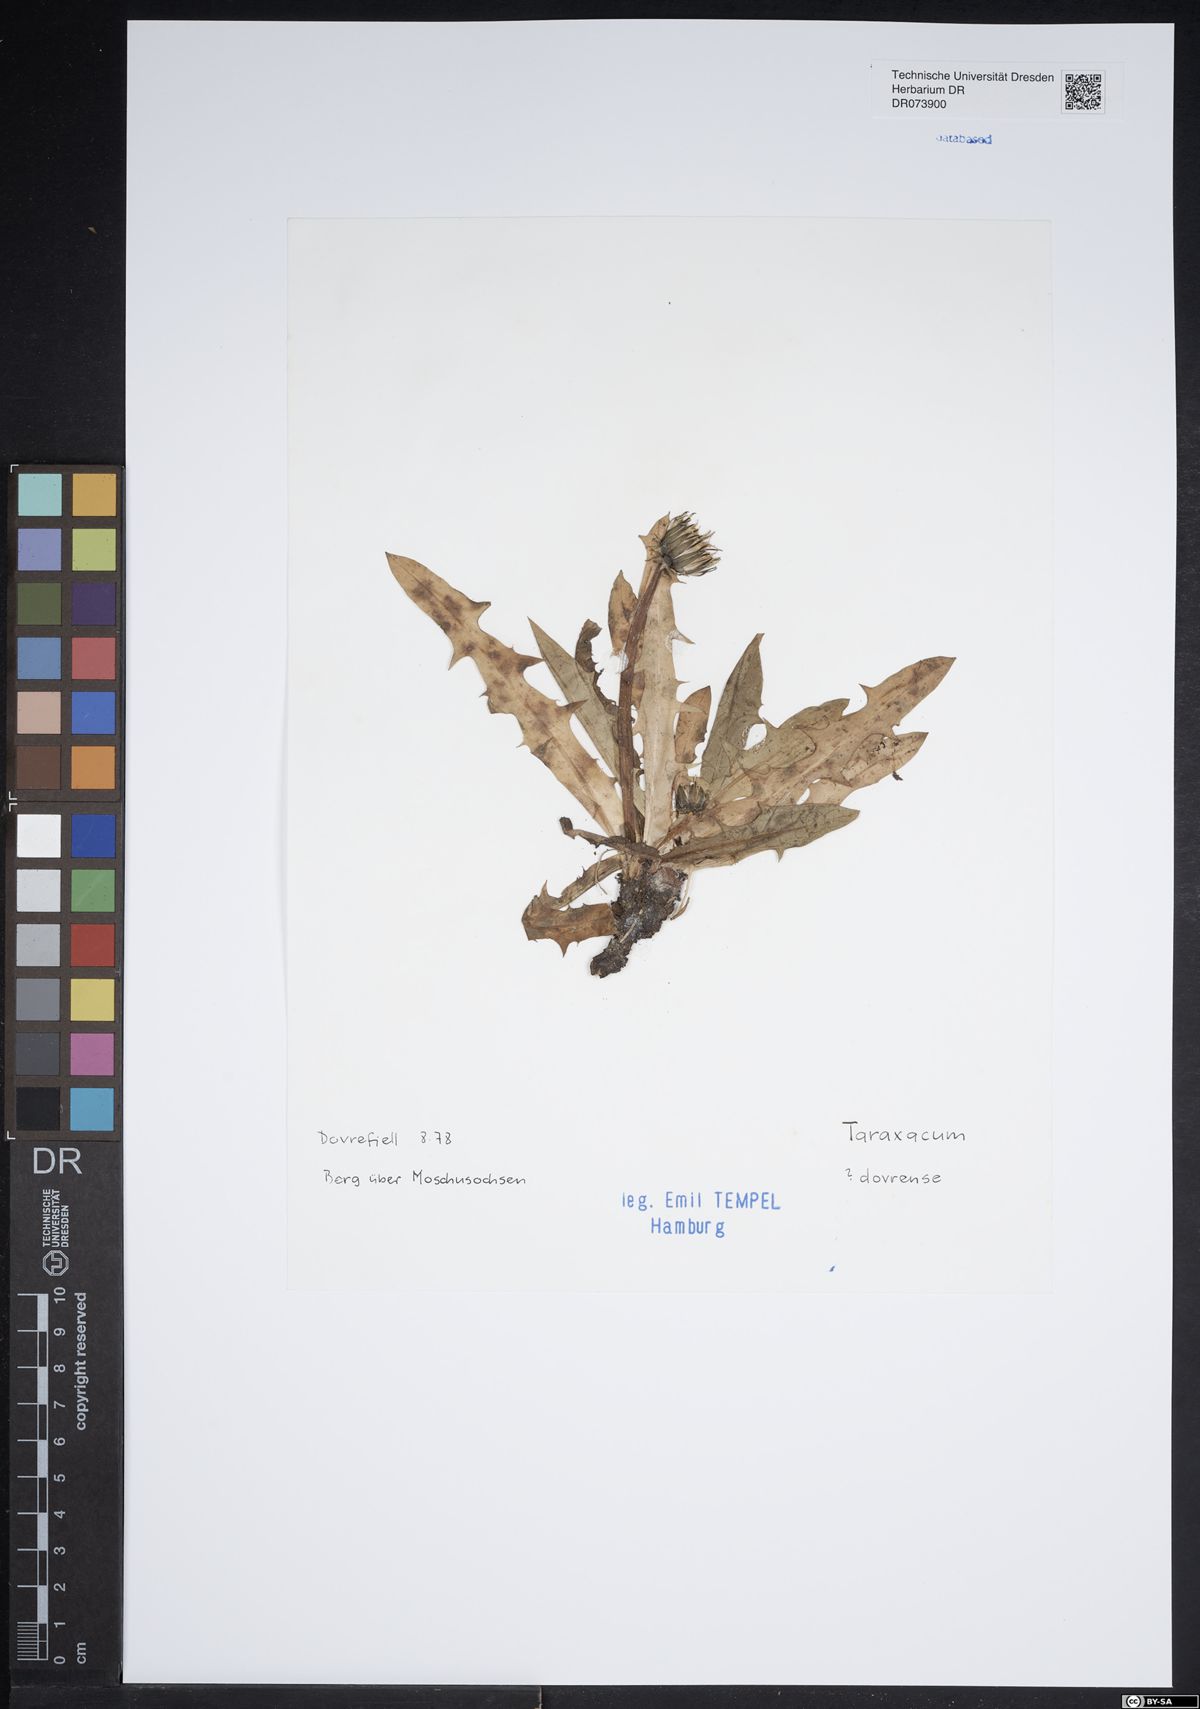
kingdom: Plantae
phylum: Tracheophyta
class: Magnoliopsida
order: Asterales
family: Asteraceae
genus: Taraxacum
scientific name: Taraxacum dovrense
